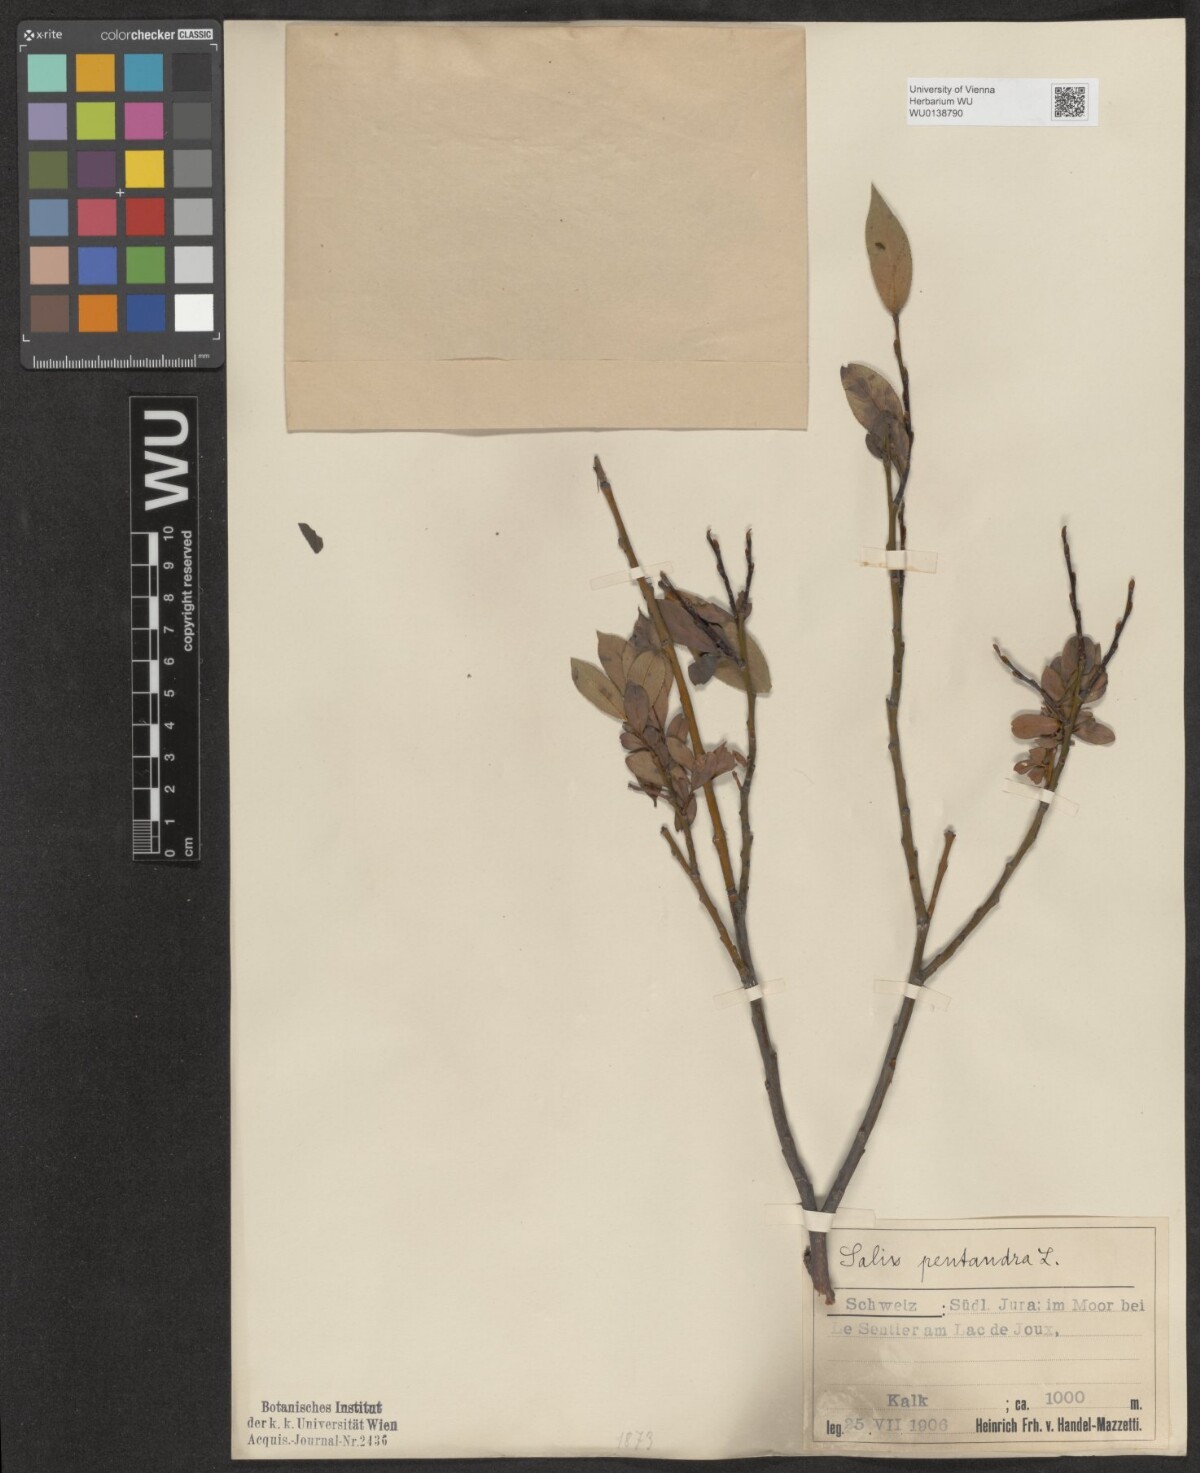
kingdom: Plantae
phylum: Tracheophyta
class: Magnoliopsida
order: Malpighiales
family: Salicaceae
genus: Salix
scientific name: Salix pentandra
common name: Bay willow
